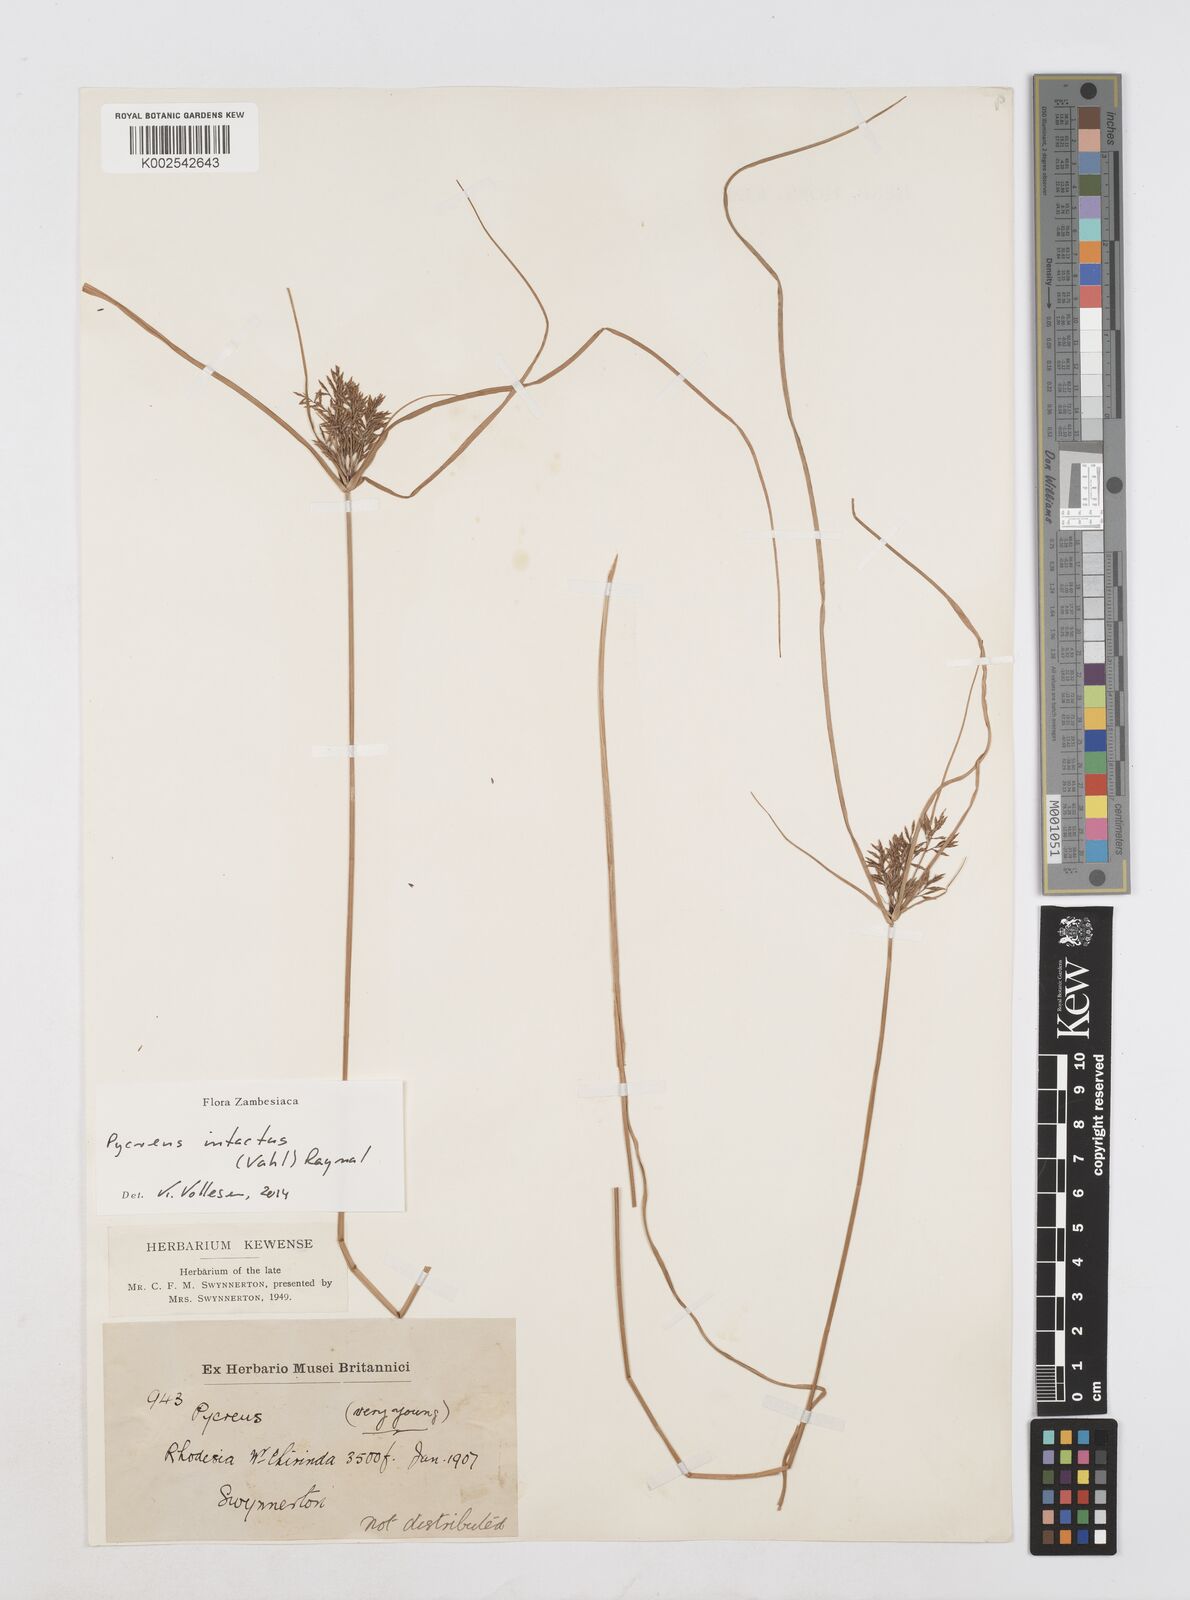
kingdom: Plantae
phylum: Tracheophyta
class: Liliopsida
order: Poales
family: Cyperaceae
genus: Cyperus
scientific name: Cyperus intactus
